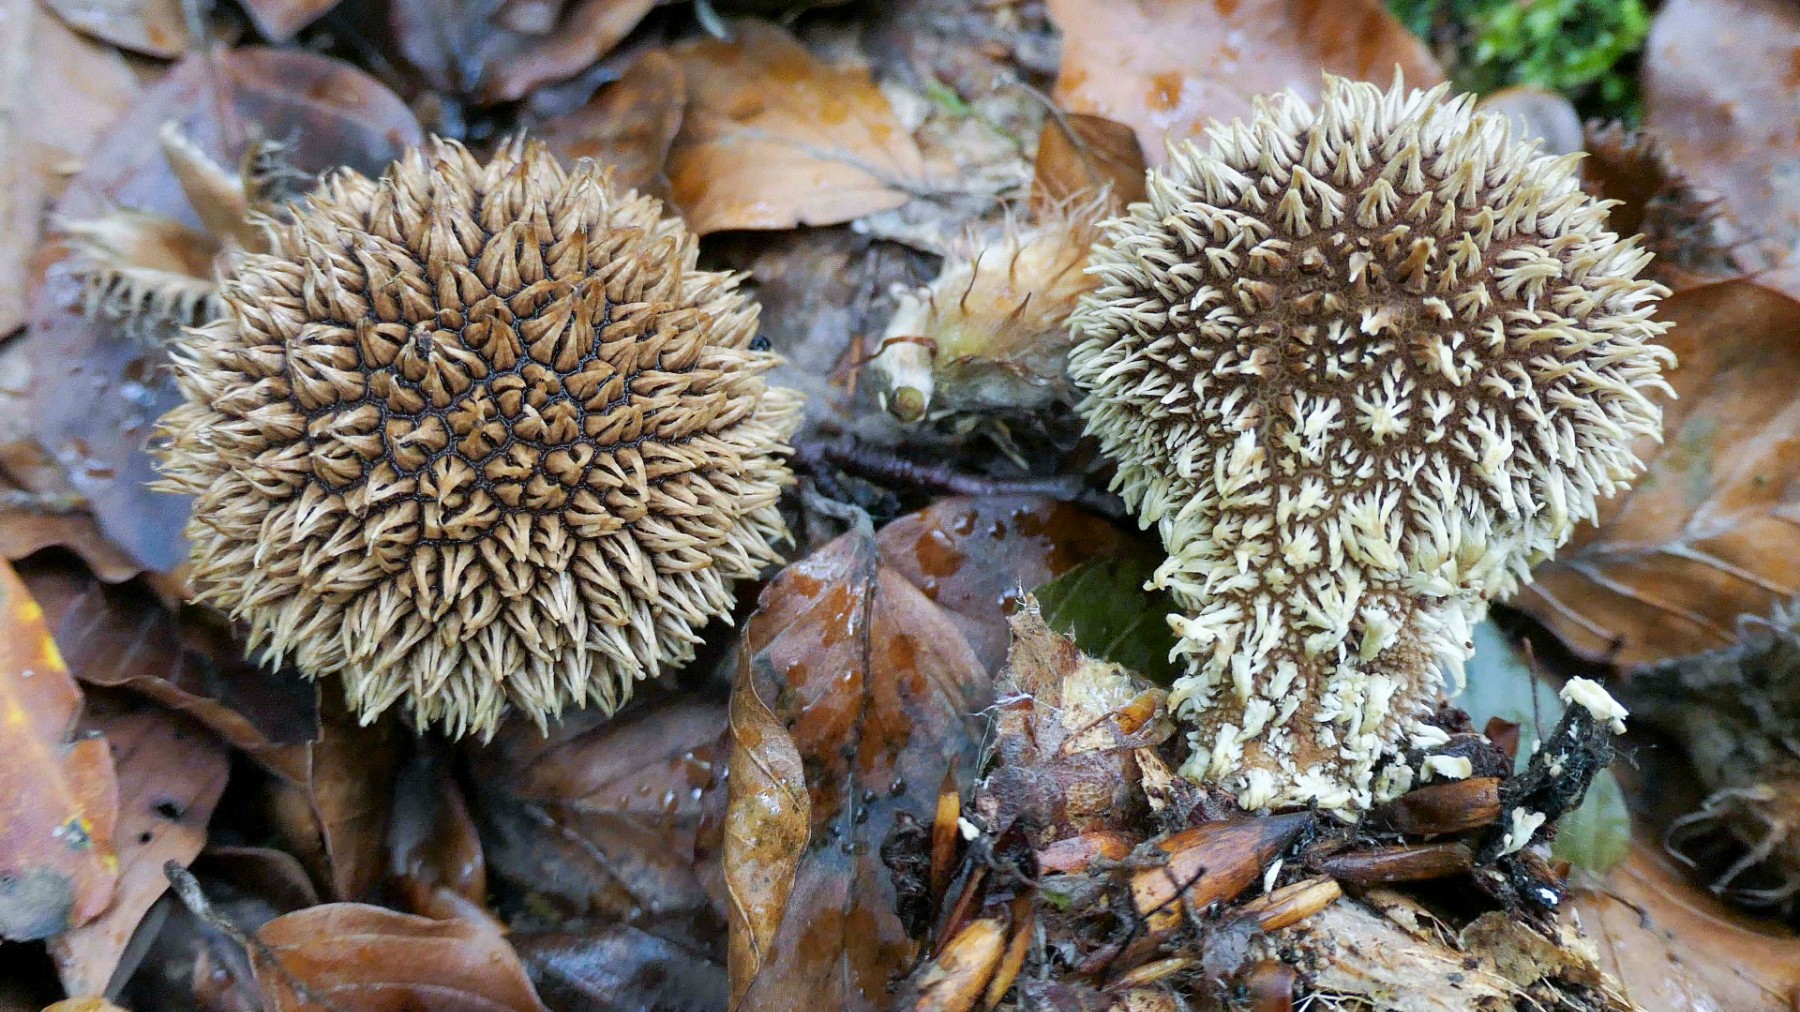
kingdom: Fungi
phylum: Basidiomycota
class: Agaricomycetes
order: Agaricales
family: Lycoperdaceae
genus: Lycoperdon
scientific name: Lycoperdon echinatum
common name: pindsvine-støvbold
